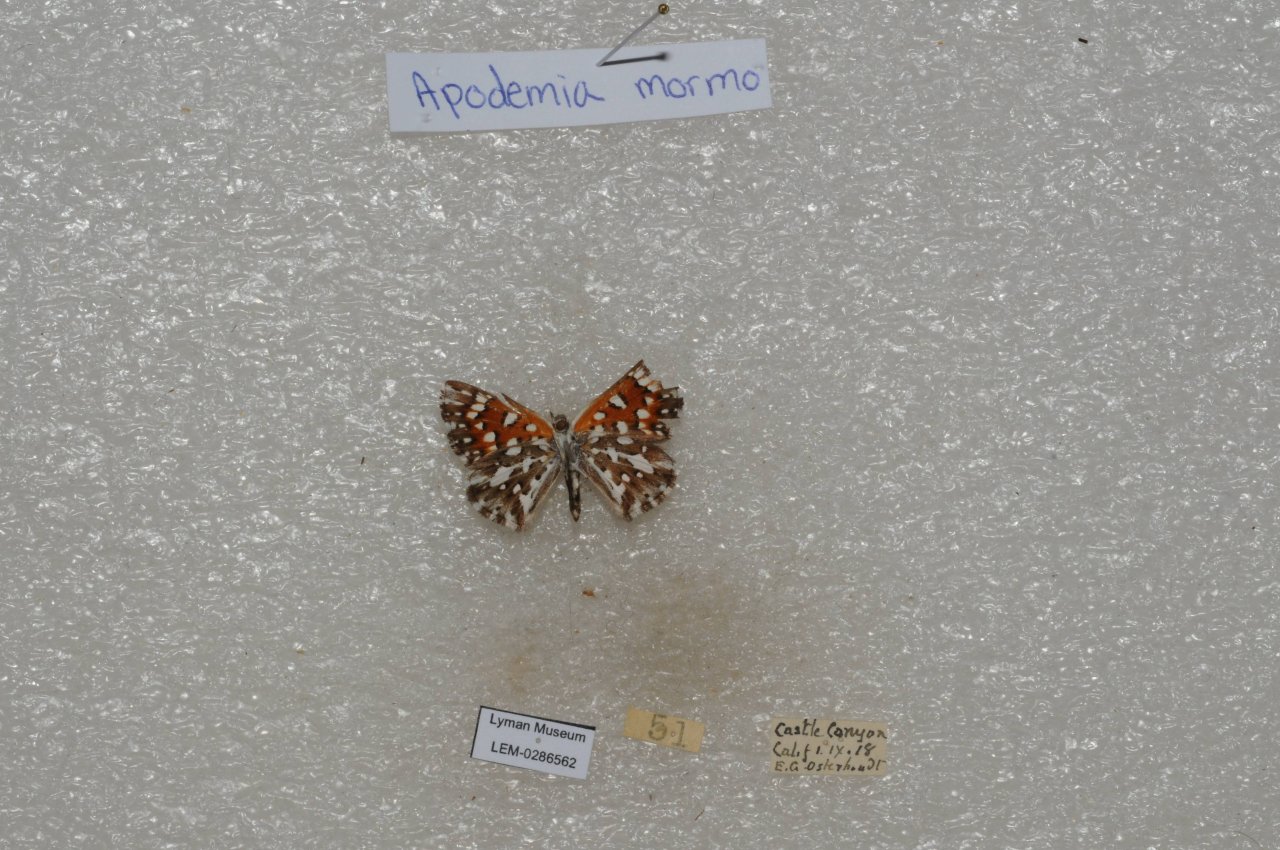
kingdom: Animalia
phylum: Arthropoda
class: Insecta
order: Lepidoptera
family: Riodinidae
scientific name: Riodinidae
